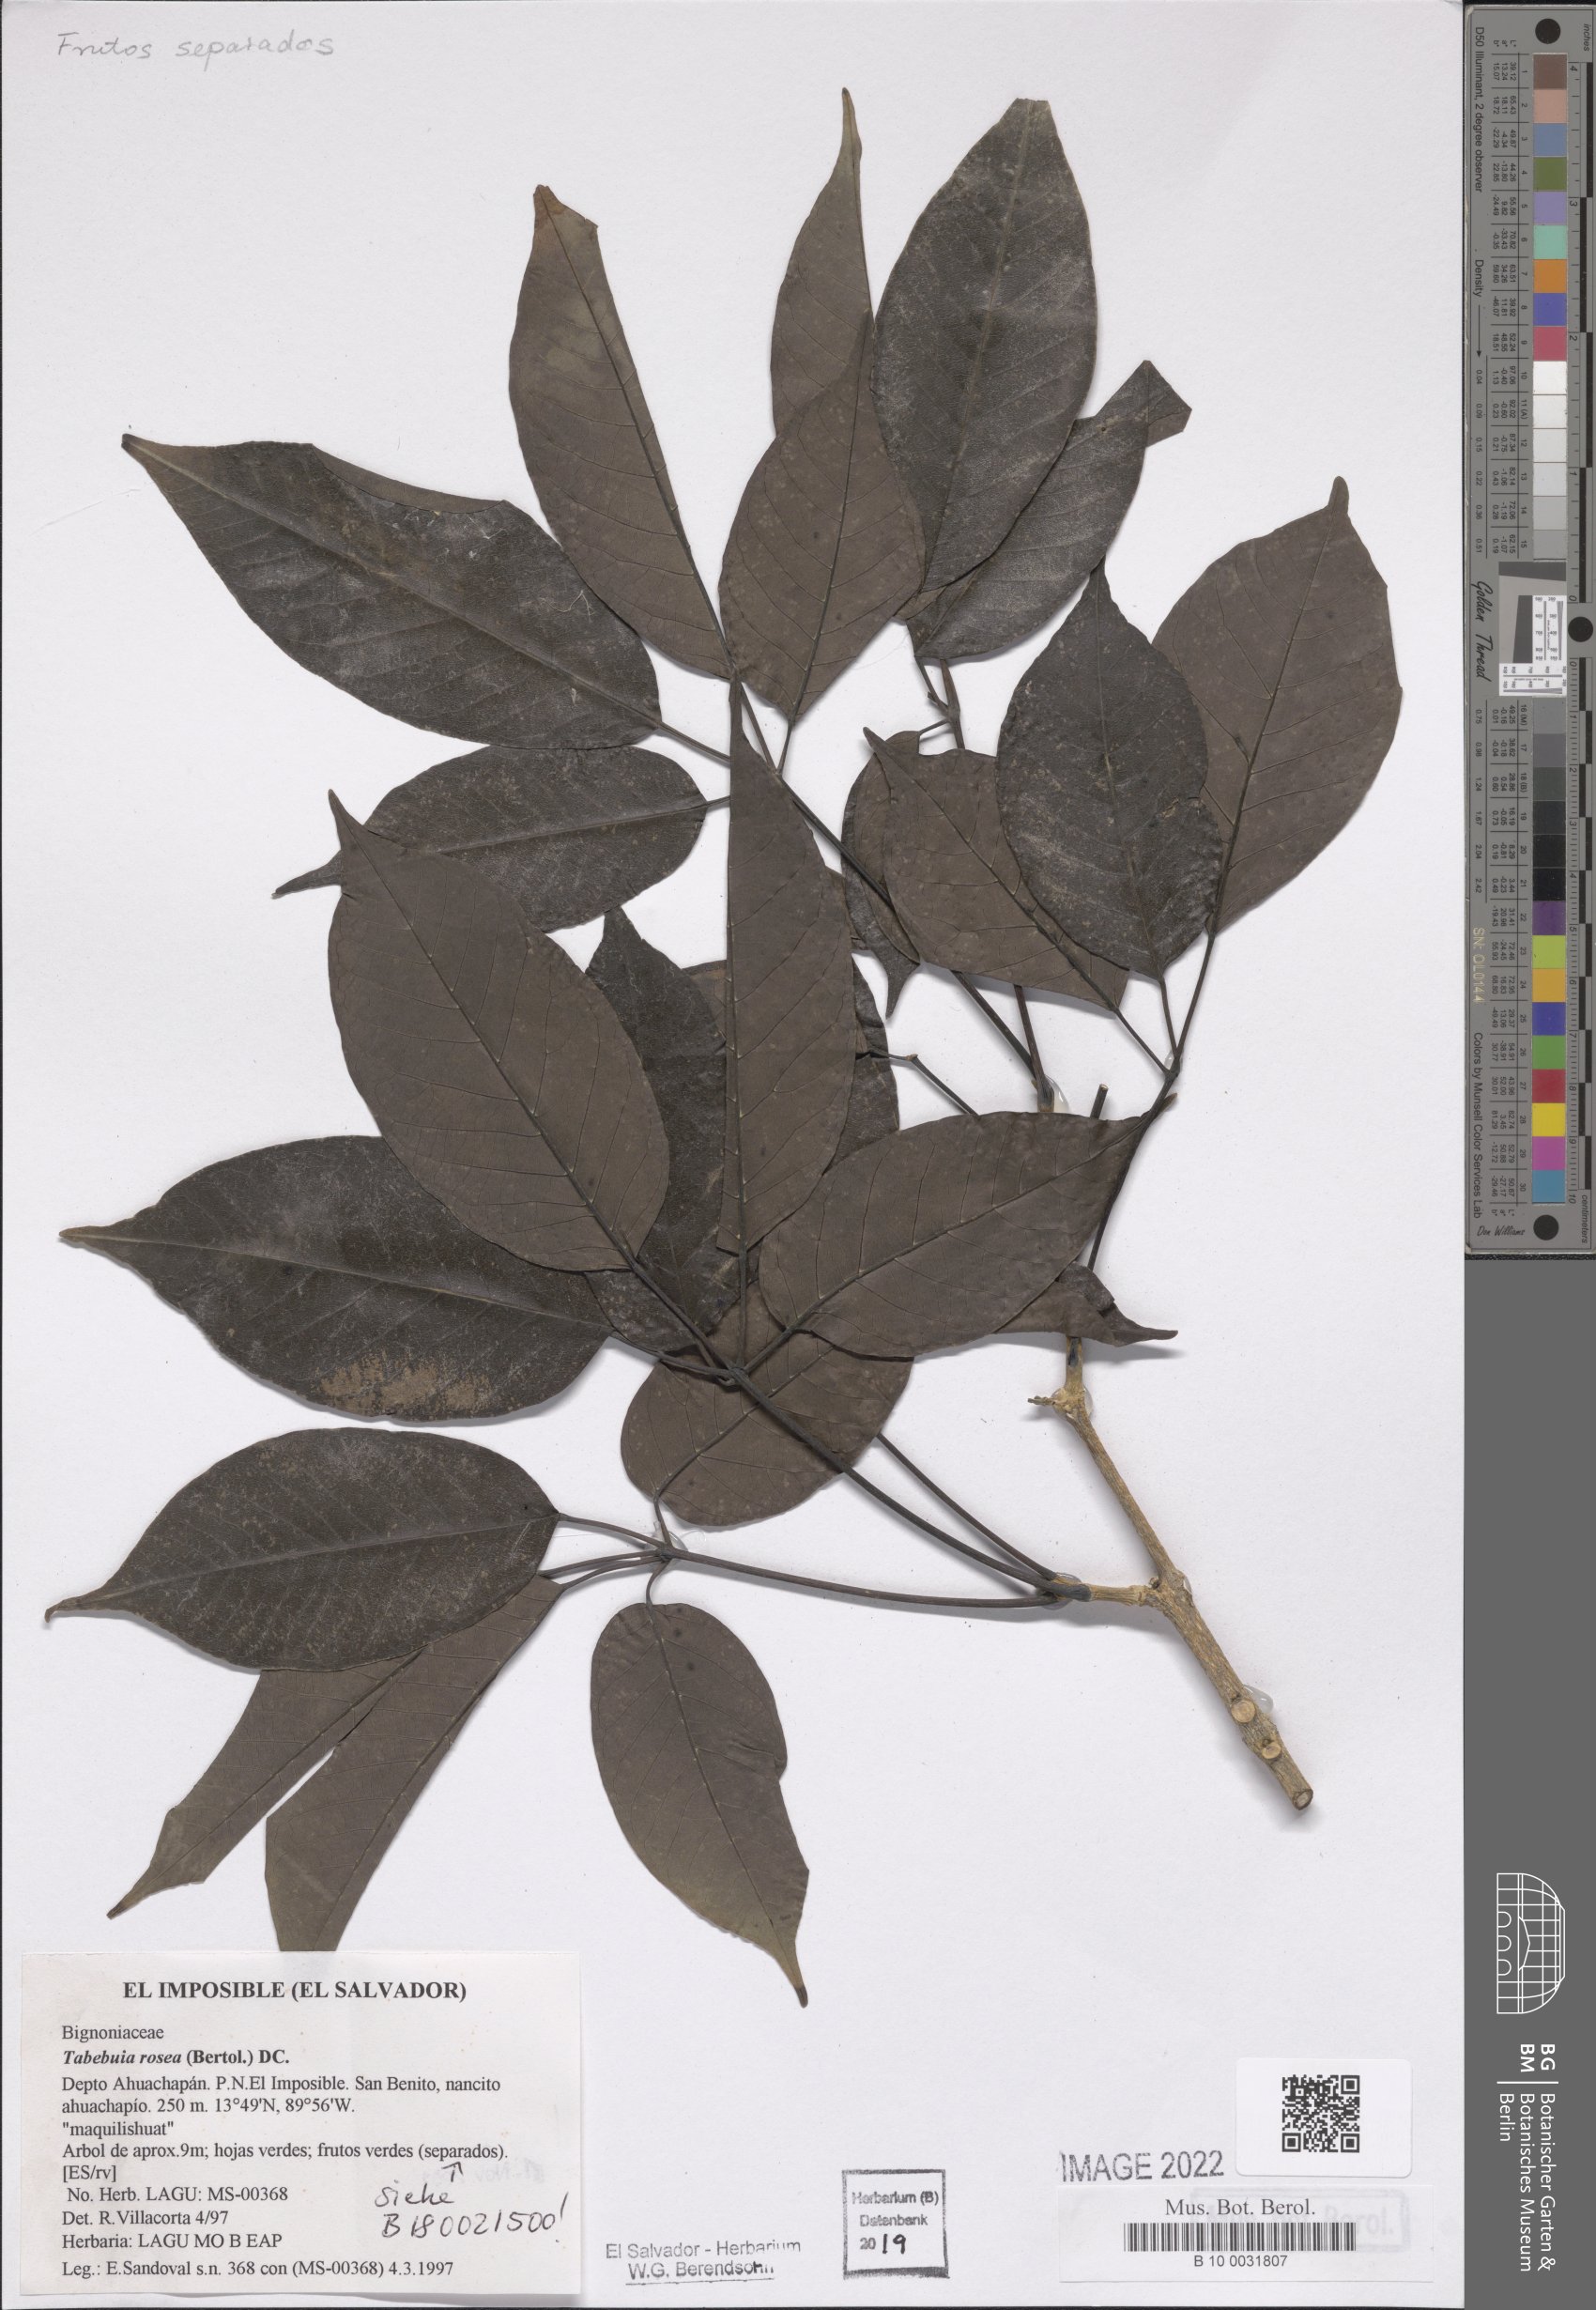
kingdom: Plantae
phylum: Tracheophyta
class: Magnoliopsida
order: Lamiales
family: Bignoniaceae
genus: Tabebuia
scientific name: Tabebuia rosea
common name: Pink poui
